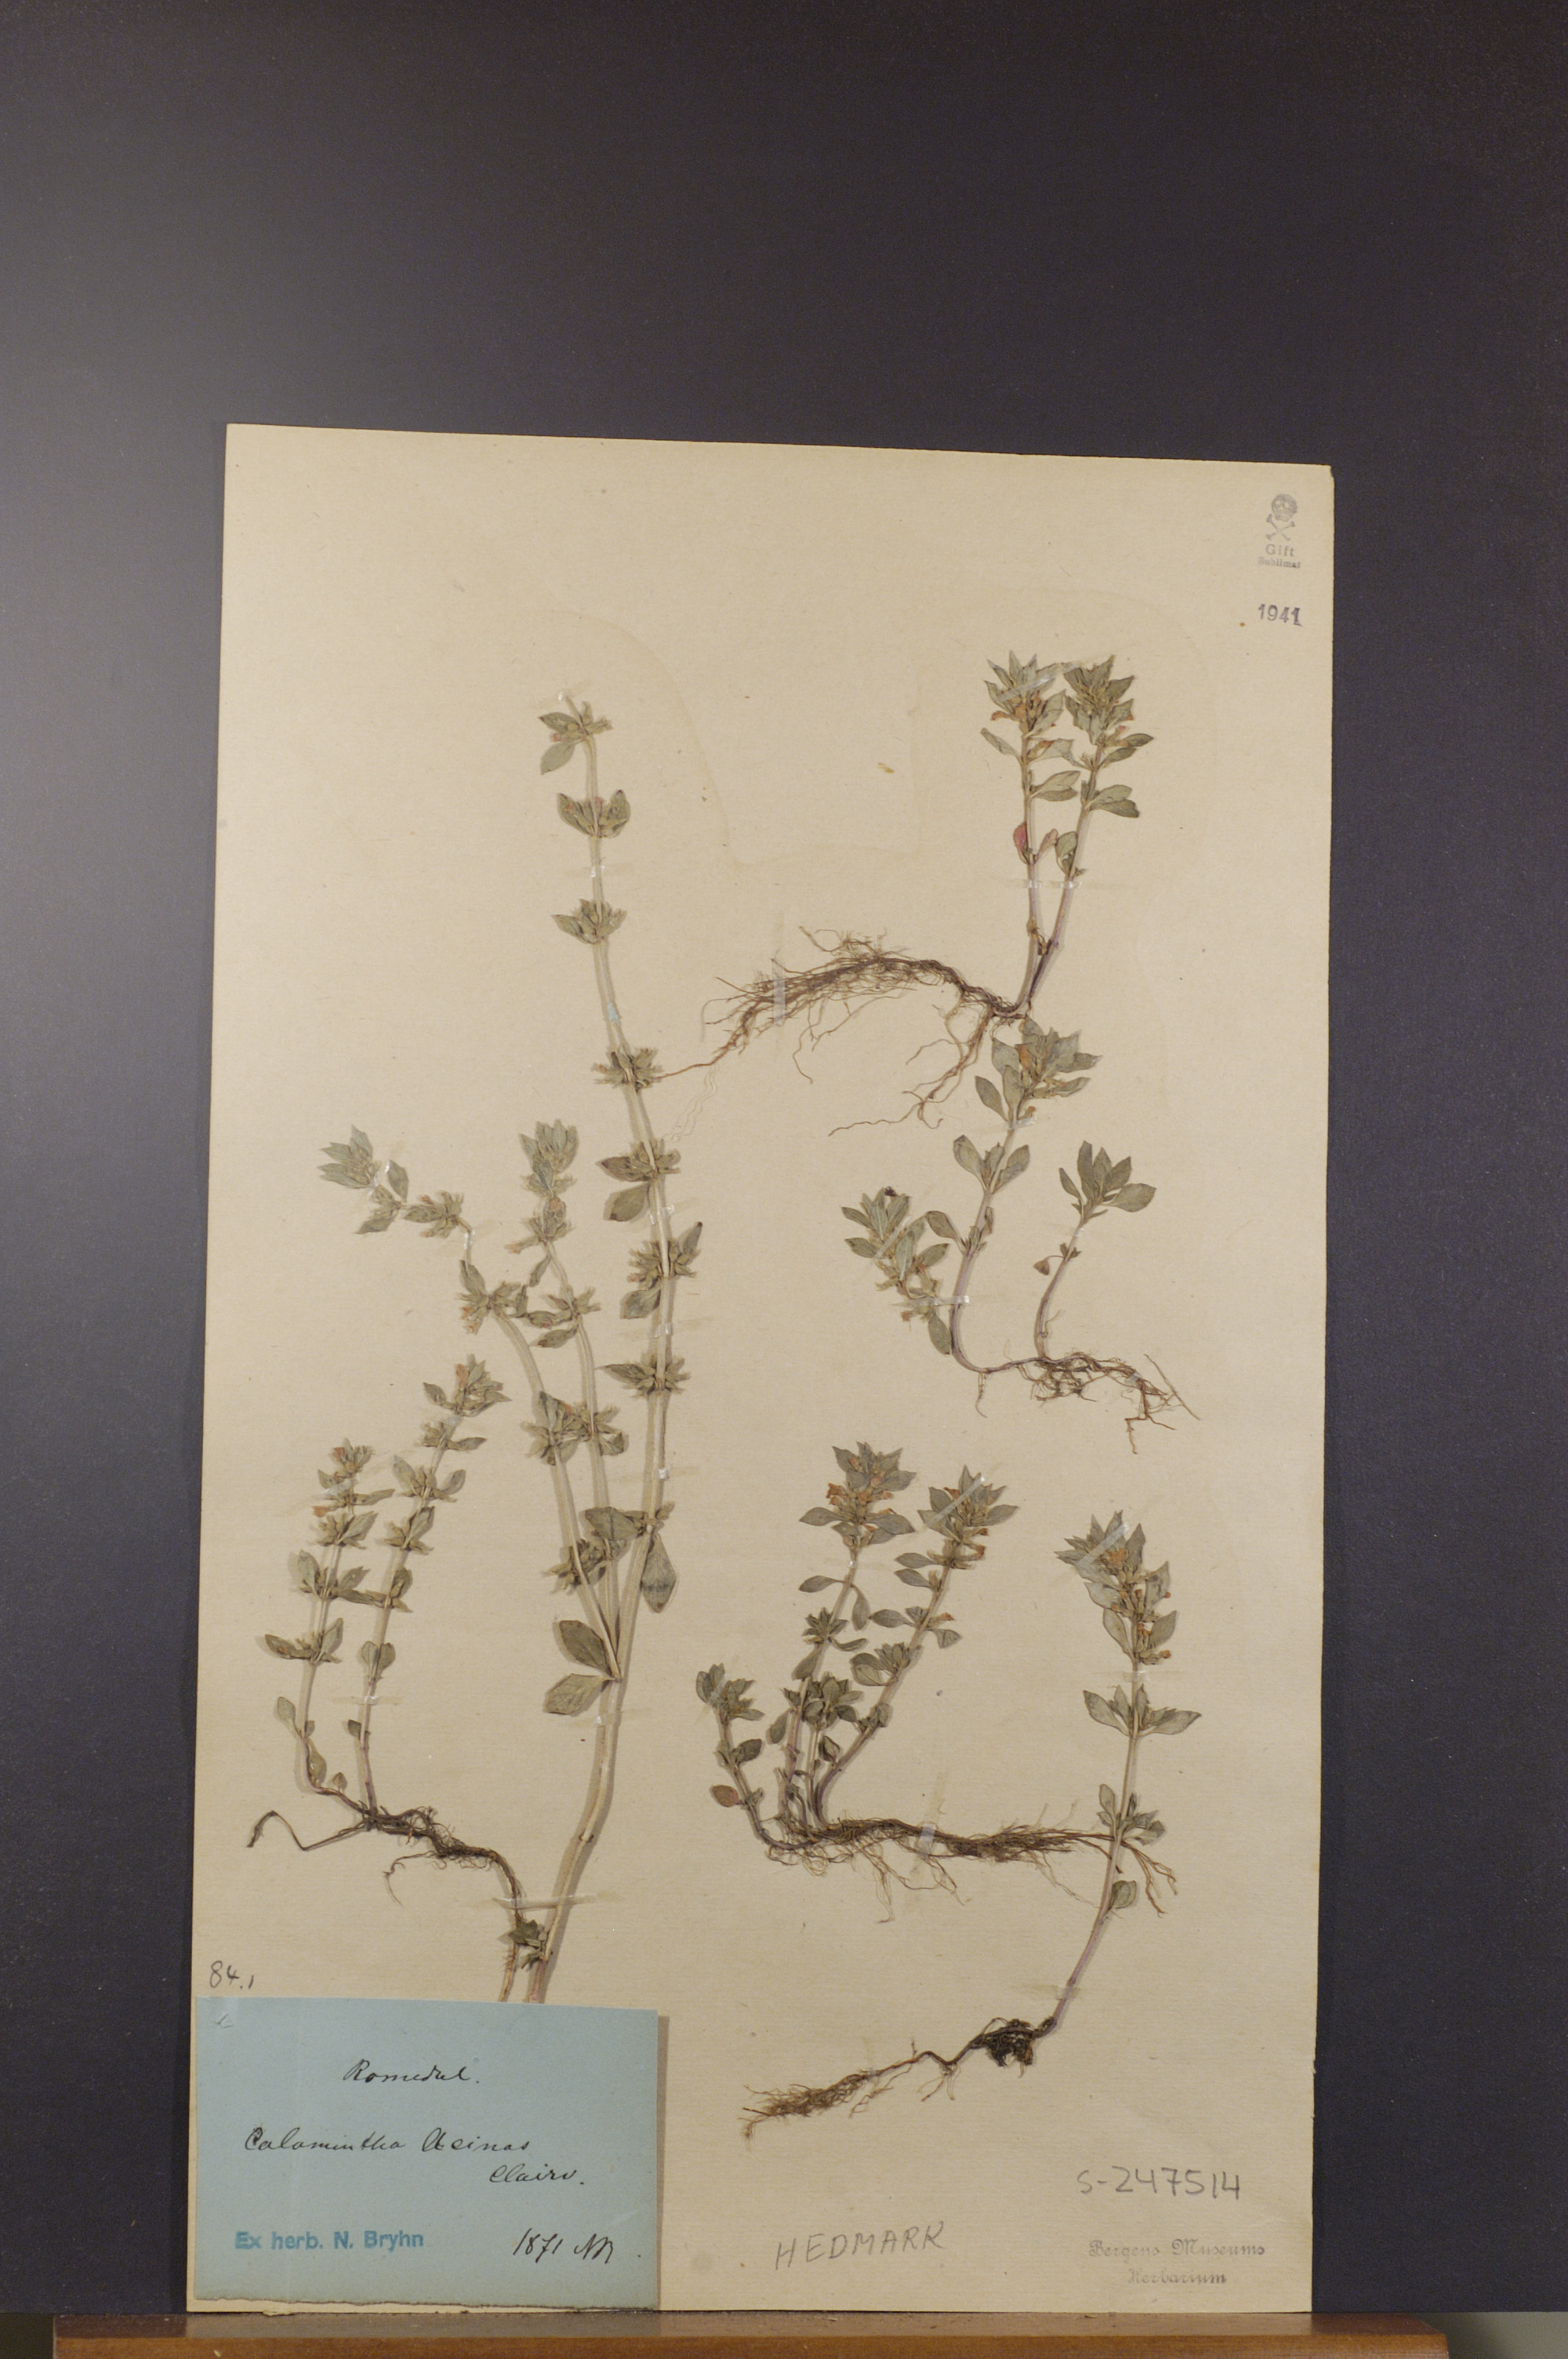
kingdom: Plantae
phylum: Tracheophyta
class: Magnoliopsida
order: Lamiales
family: Lamiaceae
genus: Clinopodium
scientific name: Clinopodium acinos
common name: Basil thyme
